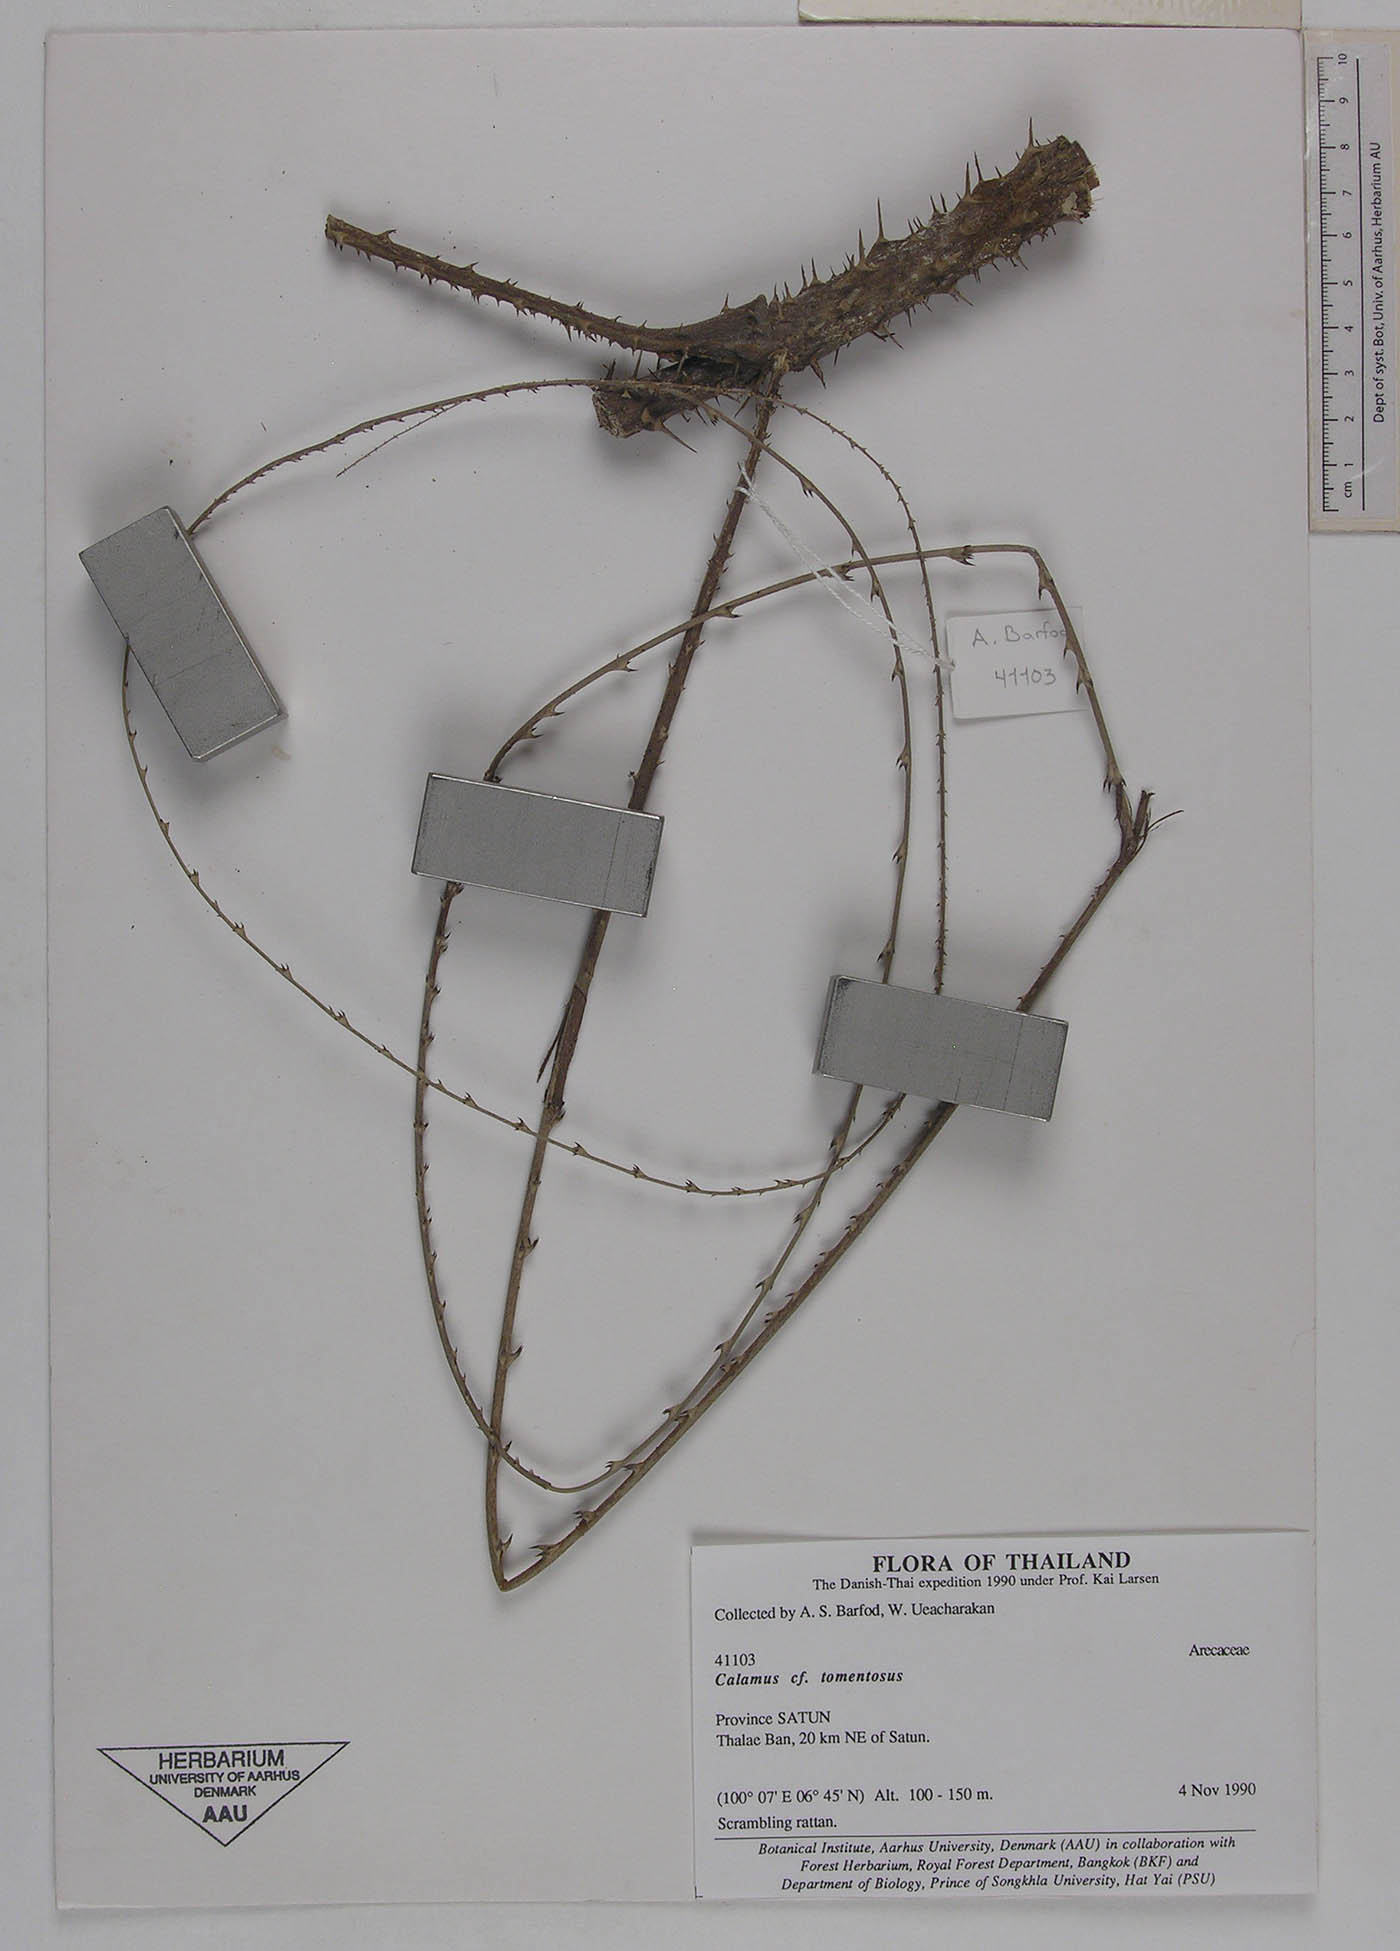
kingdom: Plantae
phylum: Tracheophyta
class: Liliopsida
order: Arecales
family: Arecaceae
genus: Calamus
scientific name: Calamus bousigonii
